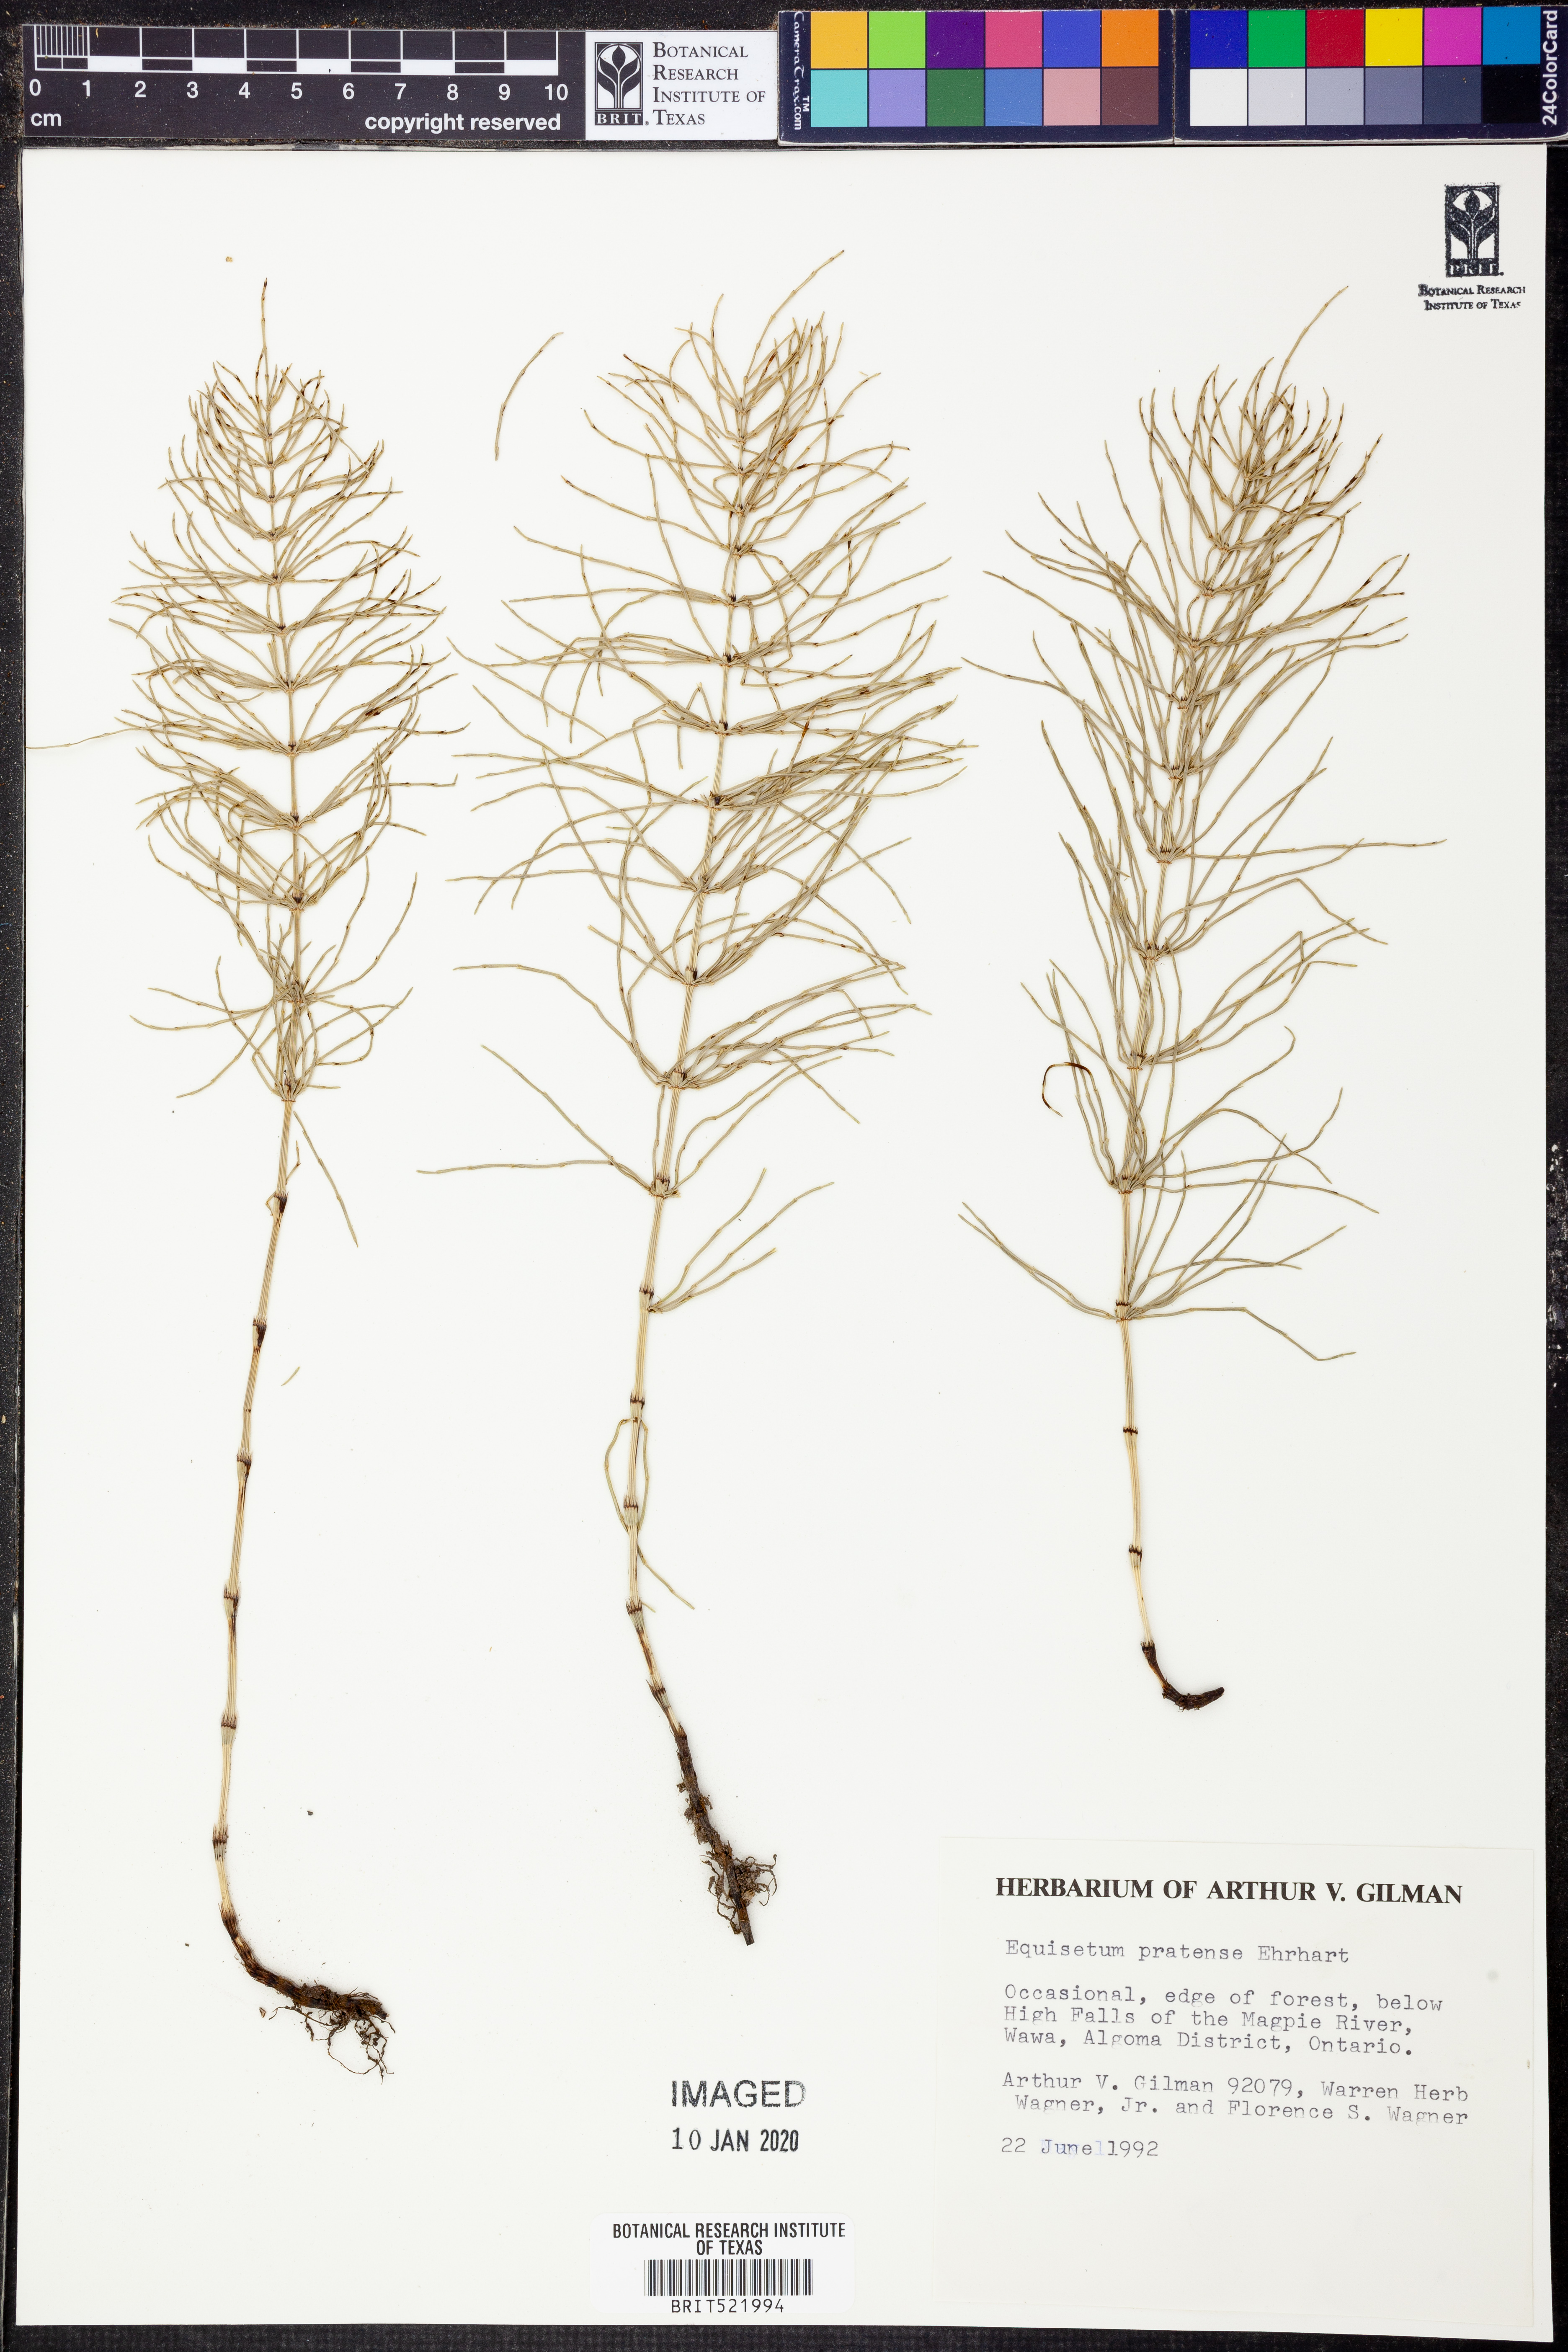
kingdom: Plantae
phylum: Tracheophyta
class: Polypodiopsida
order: Equisetales
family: Equisetaceae
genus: Equisetum
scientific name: Equisetum pratense
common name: Meadow horsetail
